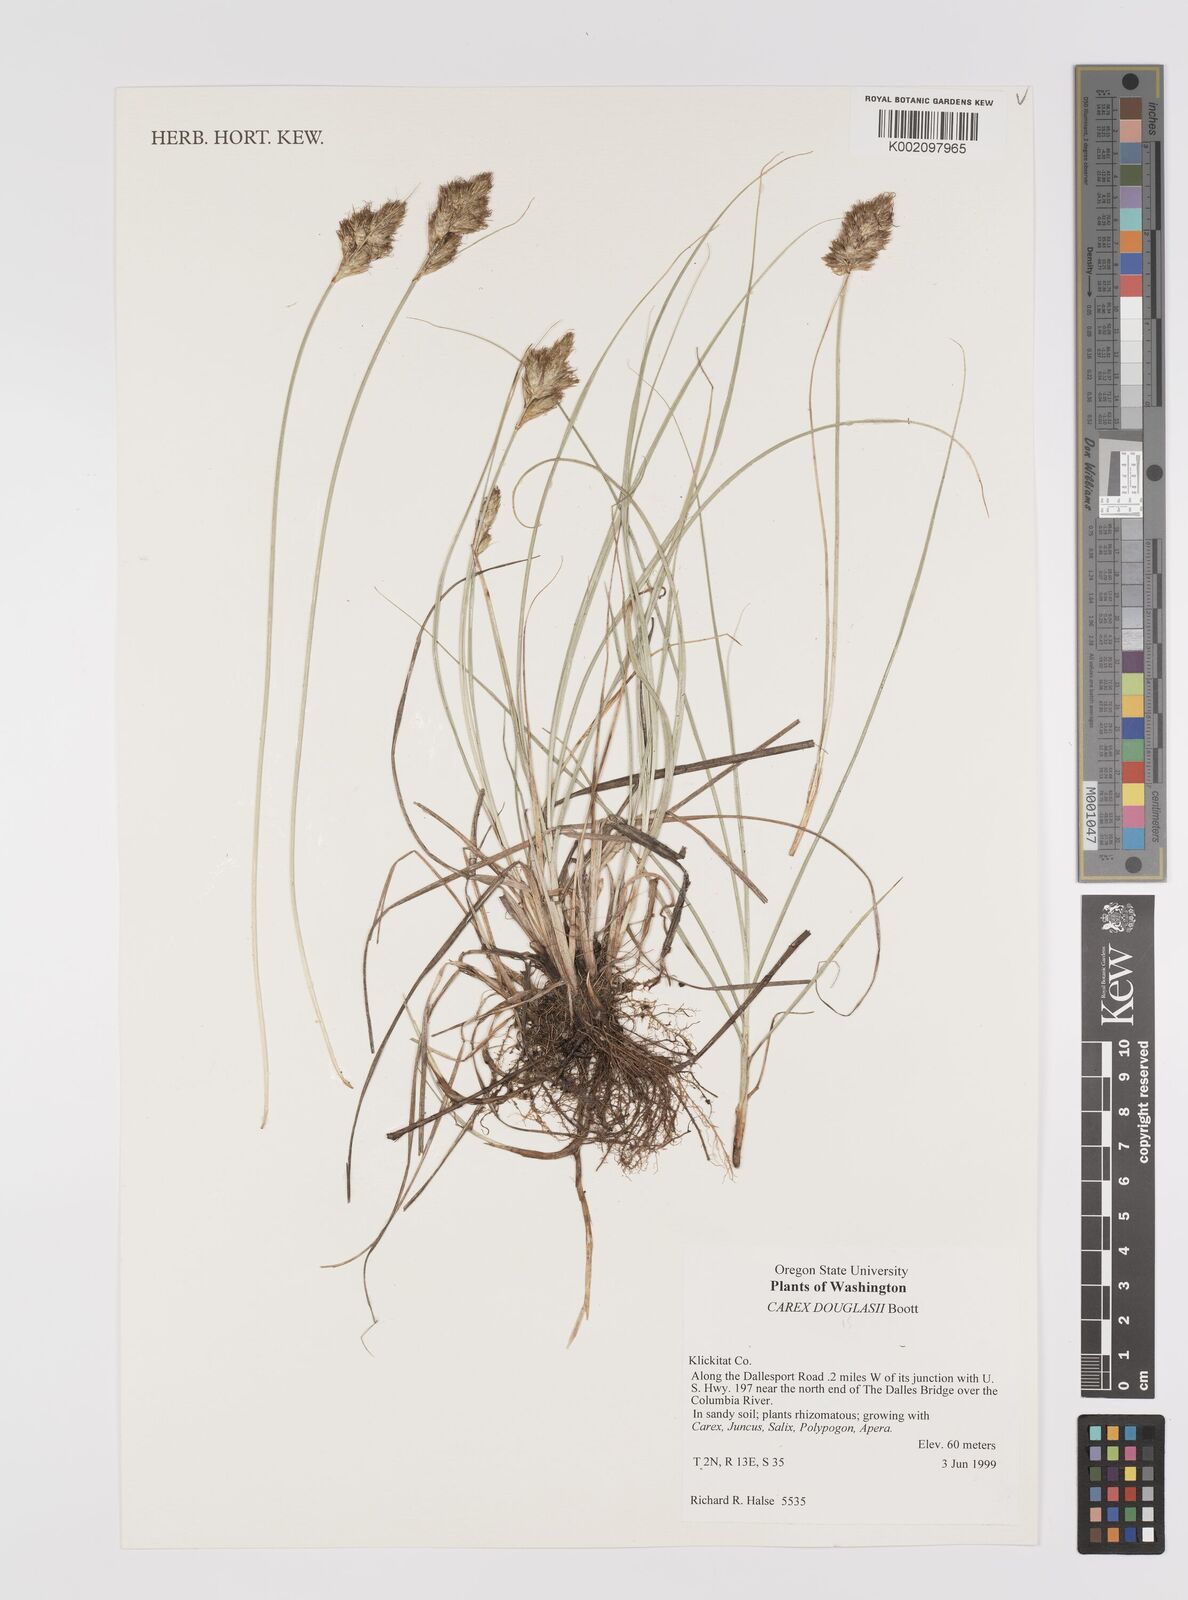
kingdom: Plantae
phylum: Tracheophyta
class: Liliopsida
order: Poales
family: Cyperaceae
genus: Carex
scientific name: Carex douglasii
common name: Douglas' sedge
